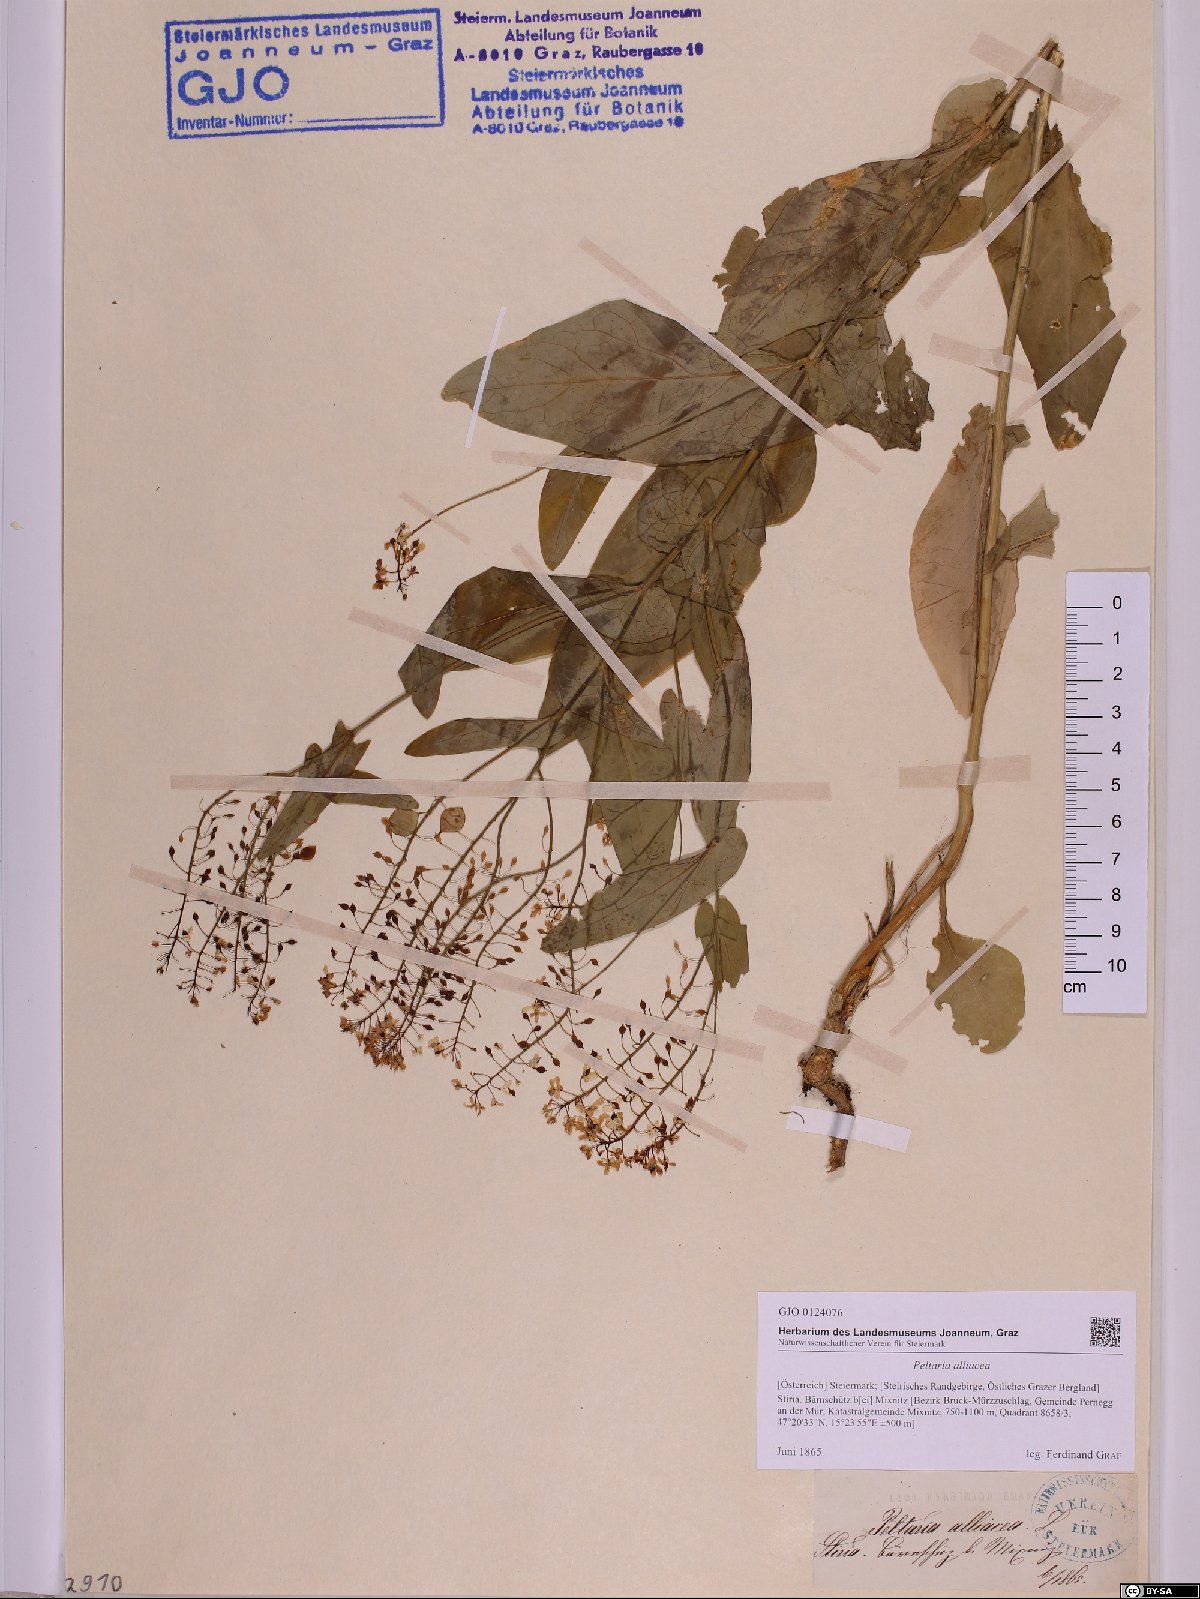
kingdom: Plantae
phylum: Tracheophyta
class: Magnoliopsida
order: Brassicales
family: Brassicaceae
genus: Peltaria
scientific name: Peltaria alliacea
